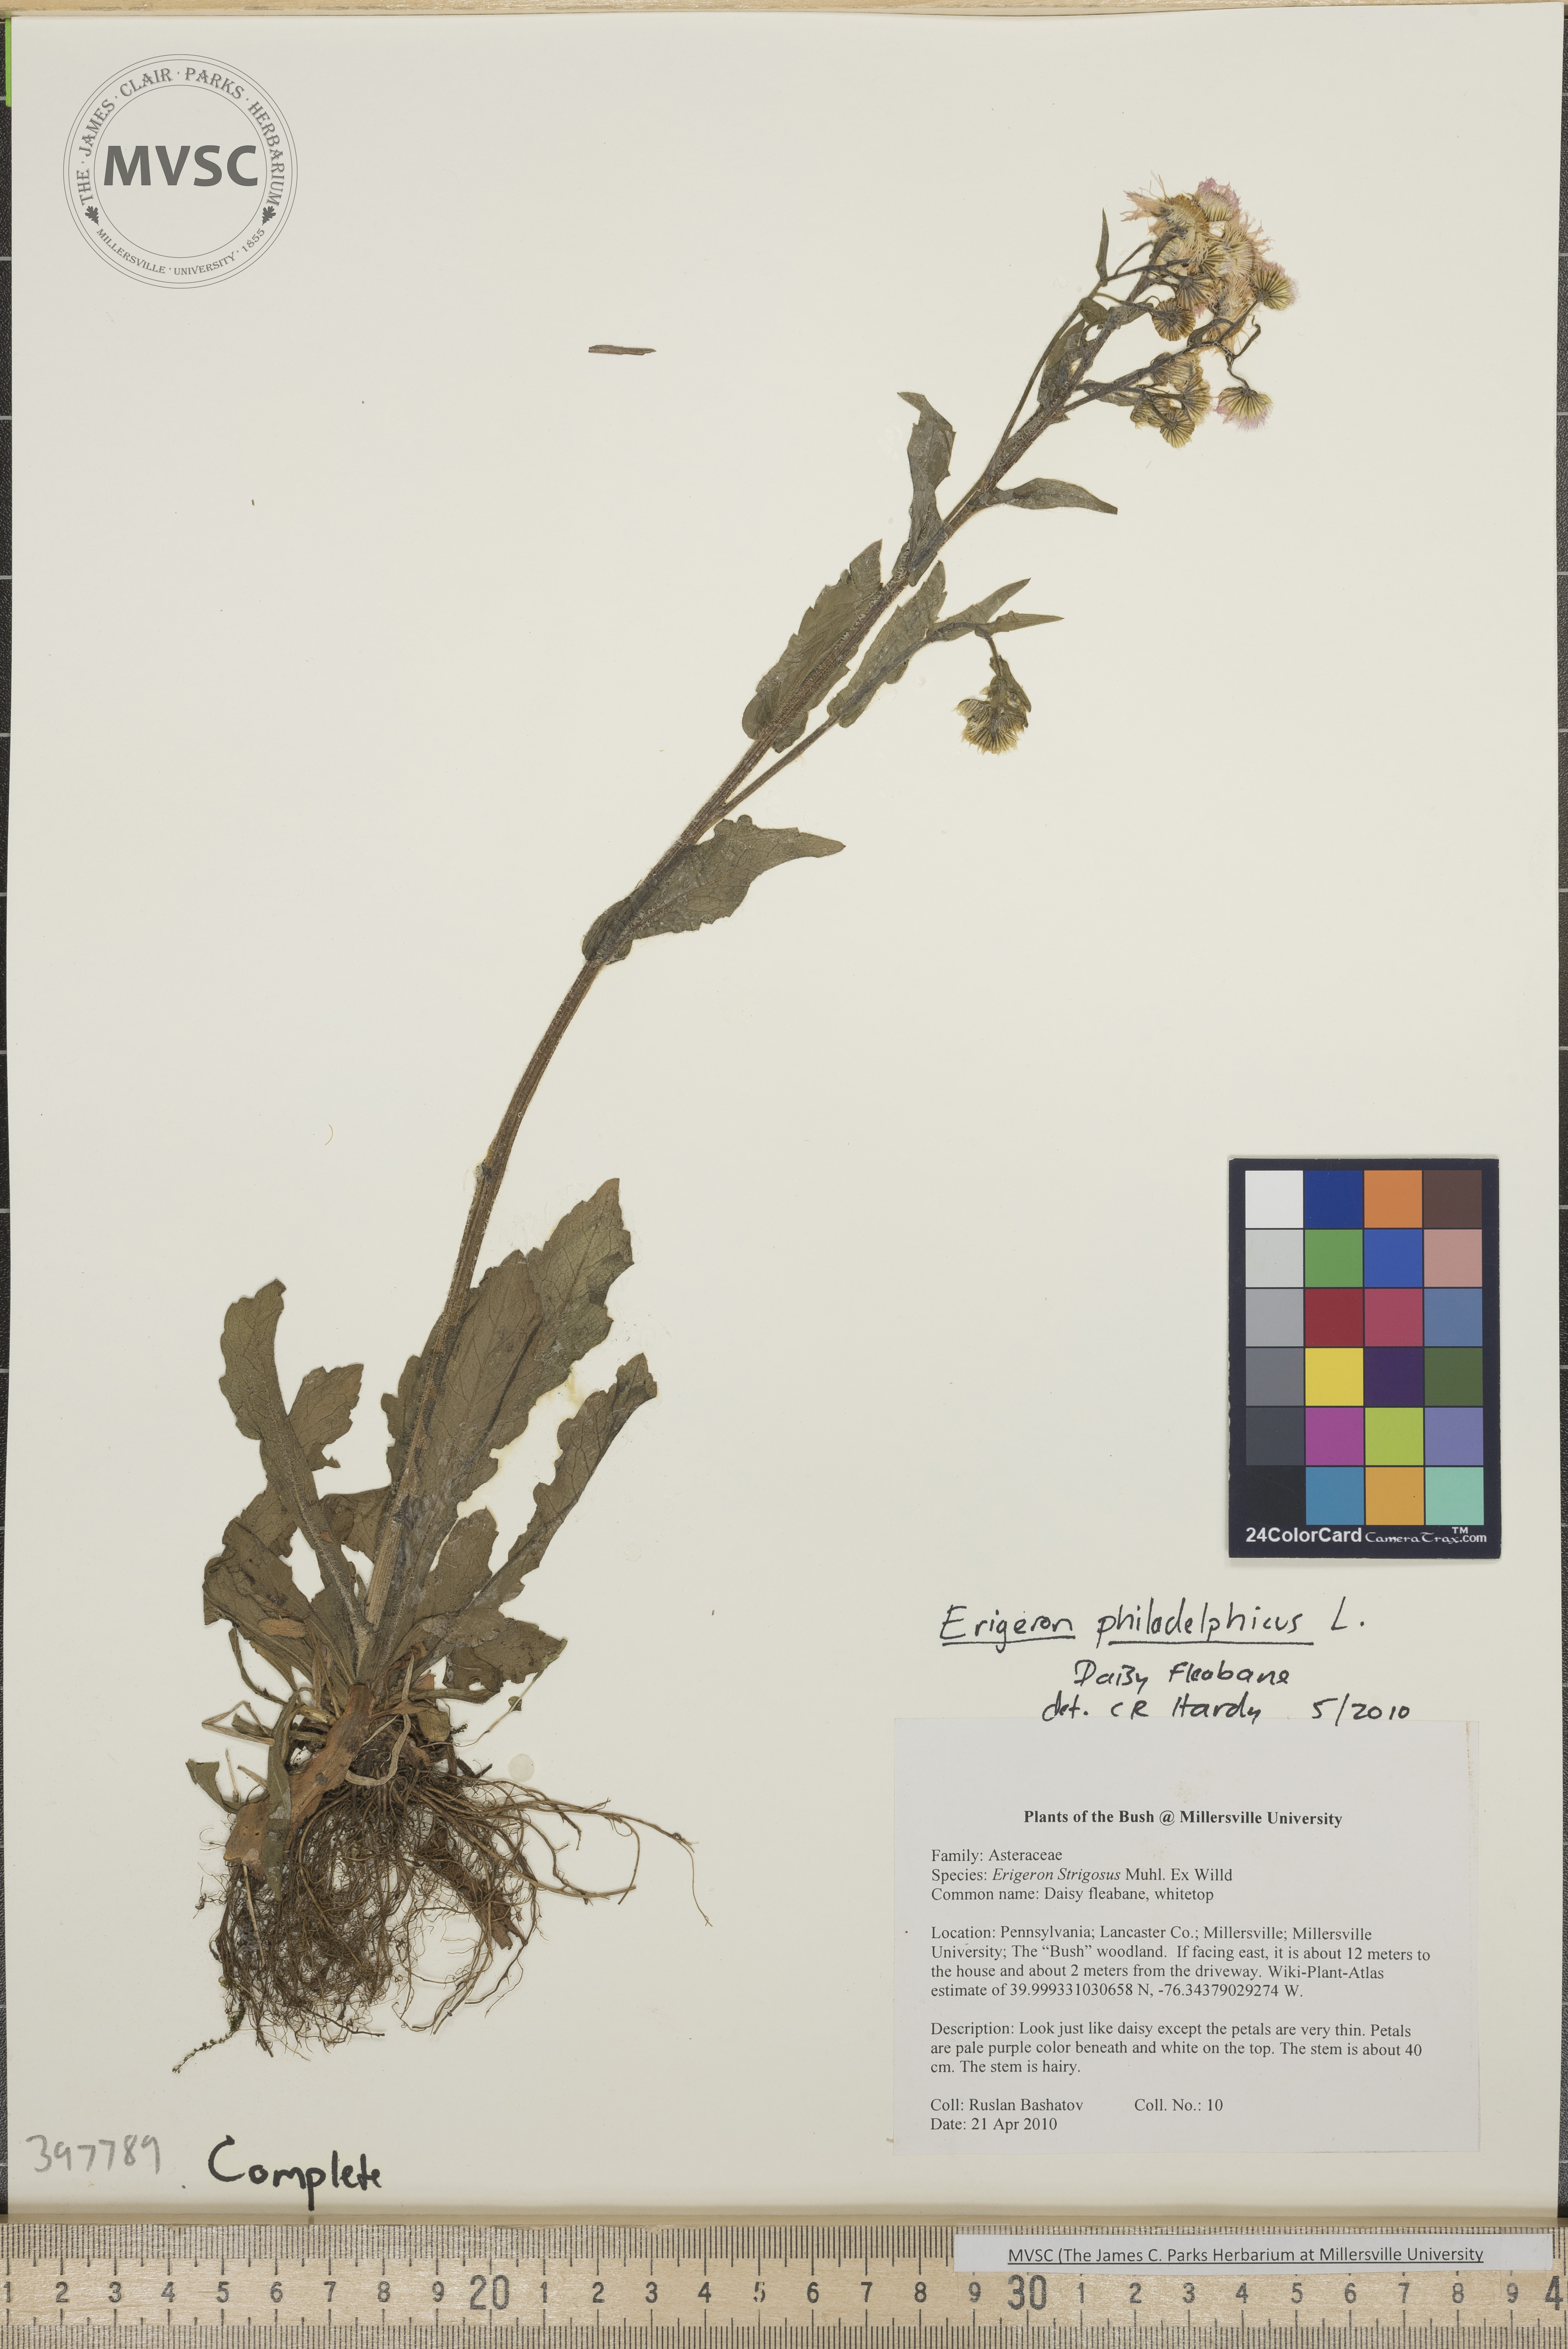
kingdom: Plantae
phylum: Tracheophyta
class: Magnoliopsida
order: Asterales
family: Asteraceae
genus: Erigeron
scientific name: Erigeron philadelphicus
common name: Daisy-fleabane
